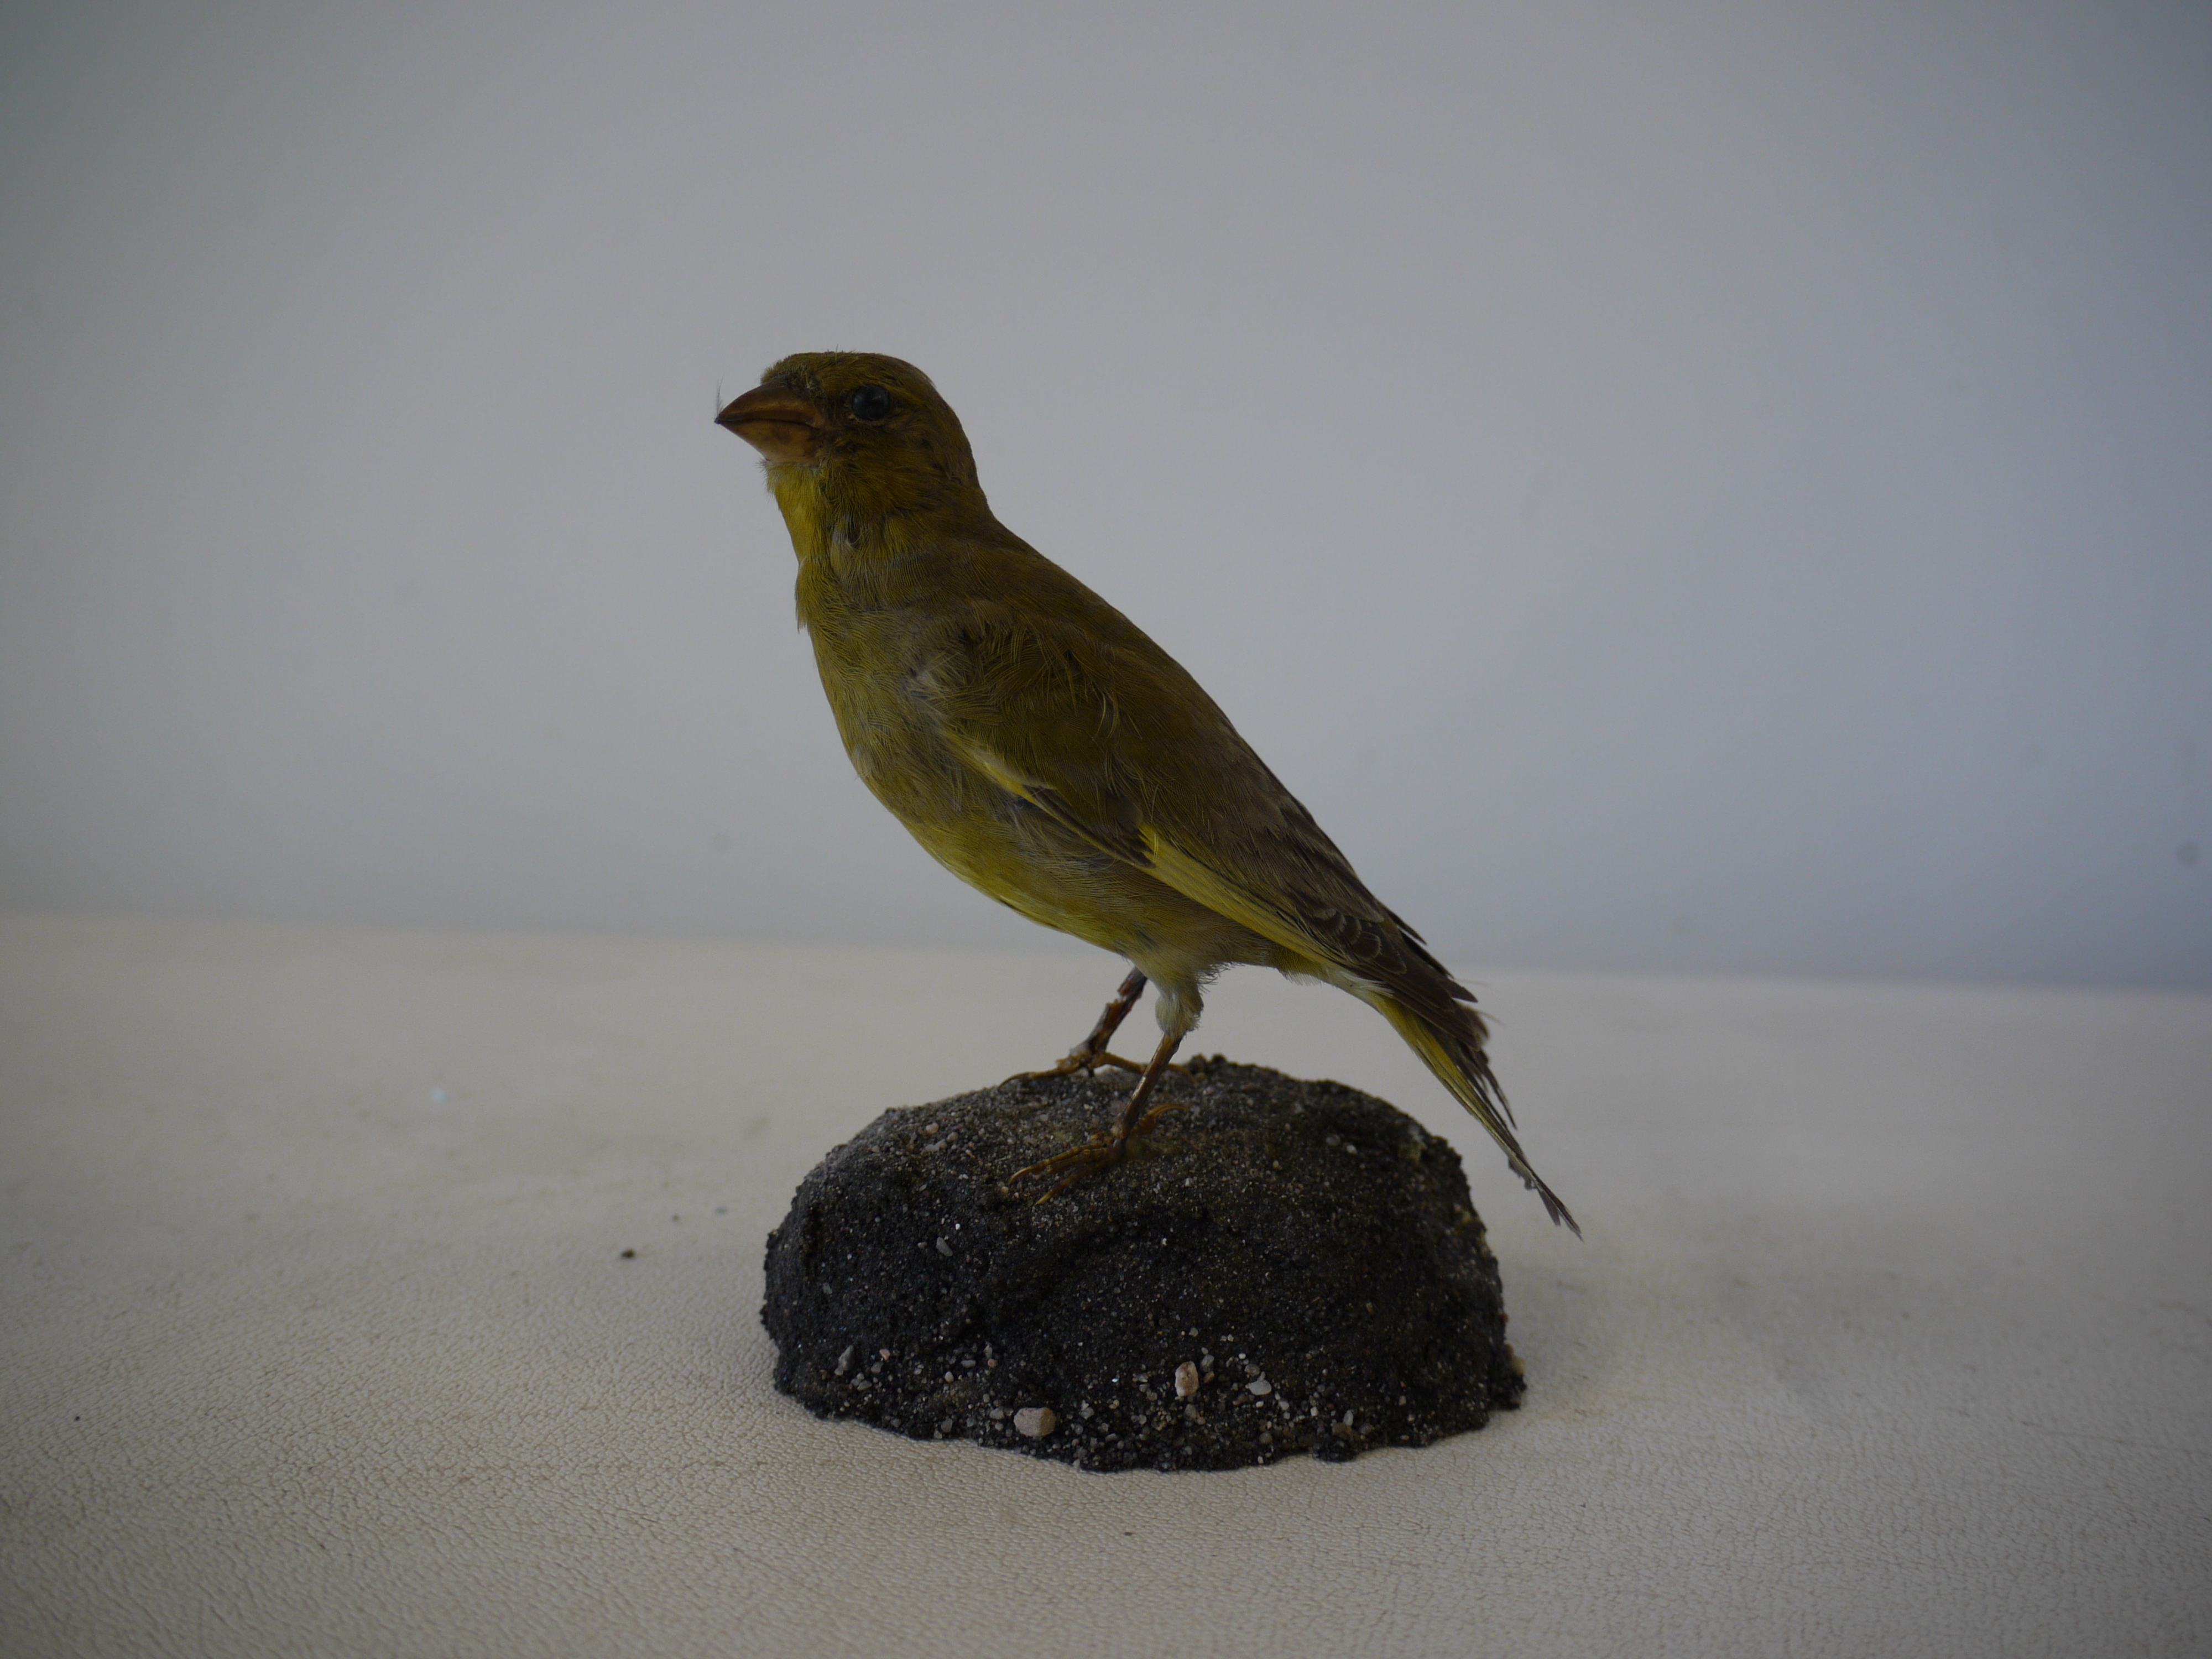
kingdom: Plantae
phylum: Tracheophyta
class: Liliopsida
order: Poales
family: Poaceae
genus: Chloris
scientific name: Chloris chloris
